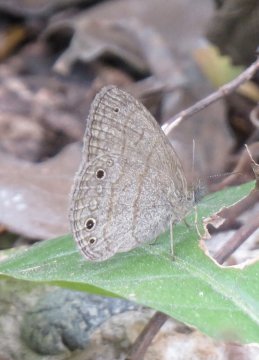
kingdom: Animalia
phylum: Arthropoda
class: Insecta
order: Lepidoptera
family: Nymphalidae
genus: Hermeuptychia
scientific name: Hermeuptychia hermybius
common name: South Texas Satyr
